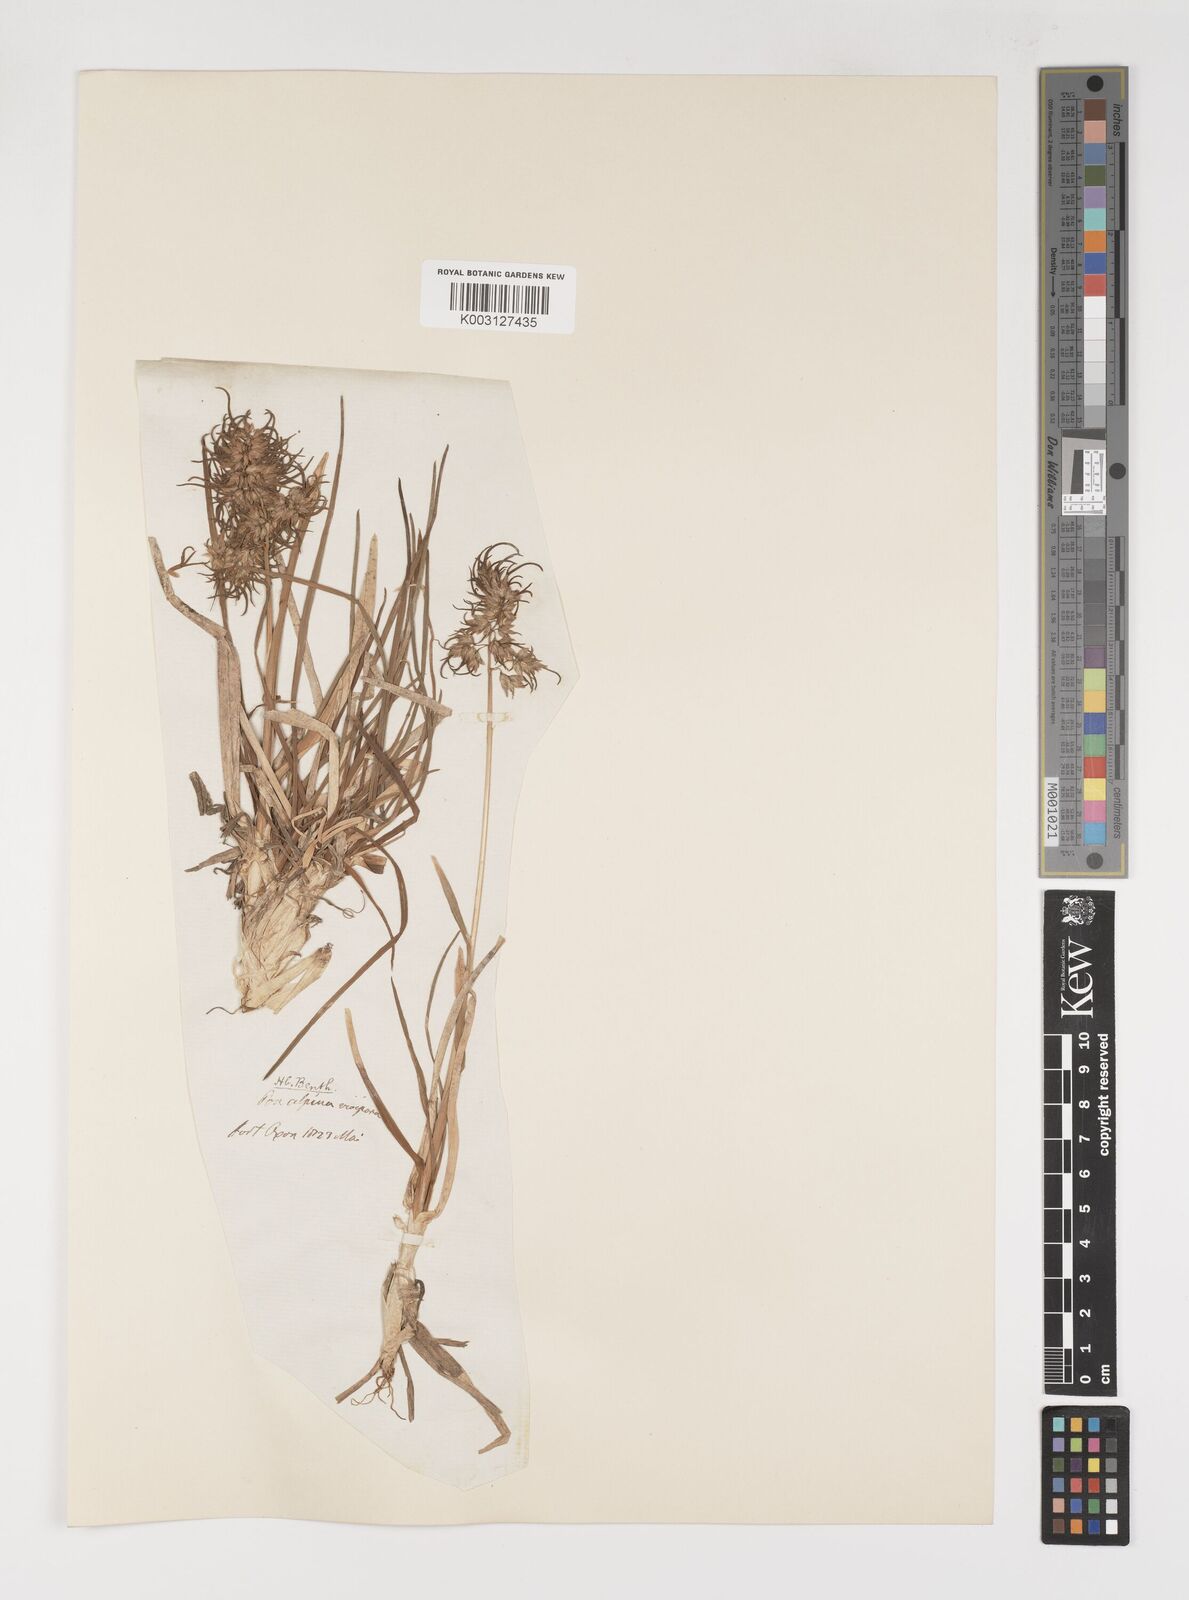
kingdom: Plantae
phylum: Tracheophyta
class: Liliopsida
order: Poales
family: Poaceae
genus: Poa
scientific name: Poa alpina
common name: Alpine bluegrass
